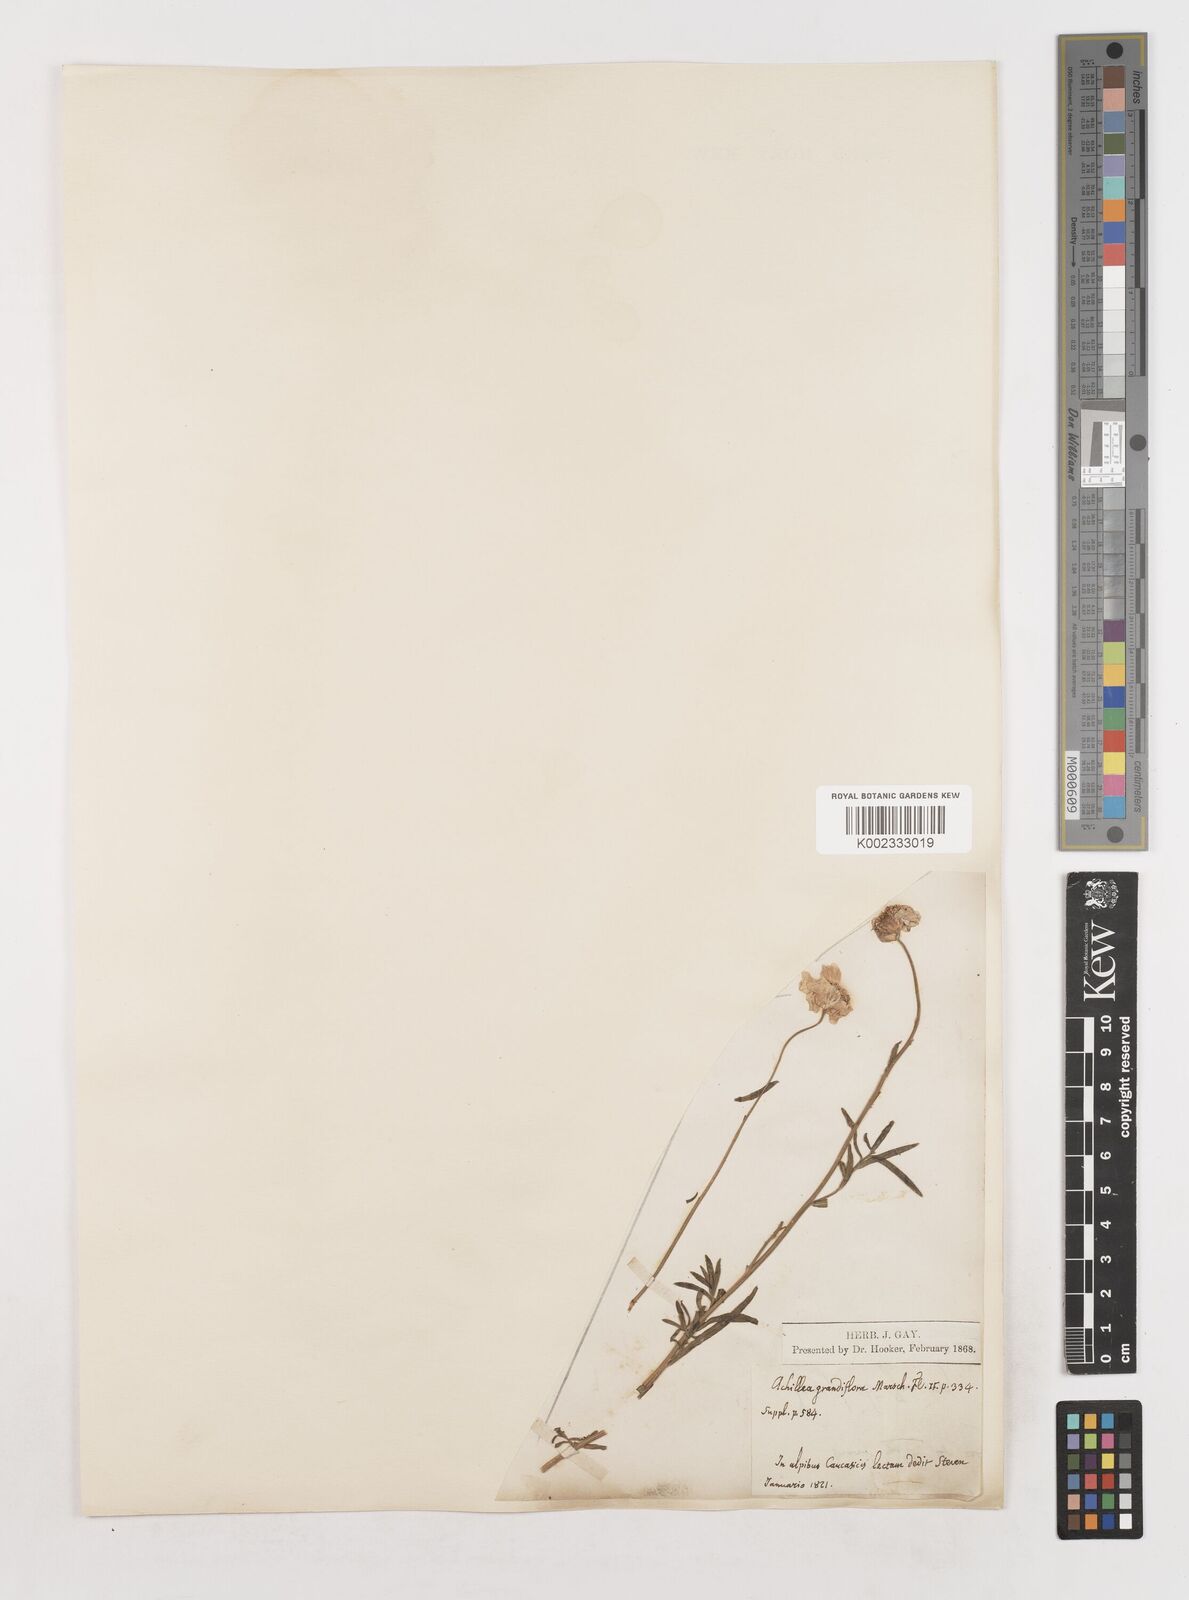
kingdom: Plantae
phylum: Tracheophyta
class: Magnoliopsida
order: Asterales
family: Asteraceae
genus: Achillea
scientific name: Achillea ptarmicifolia
